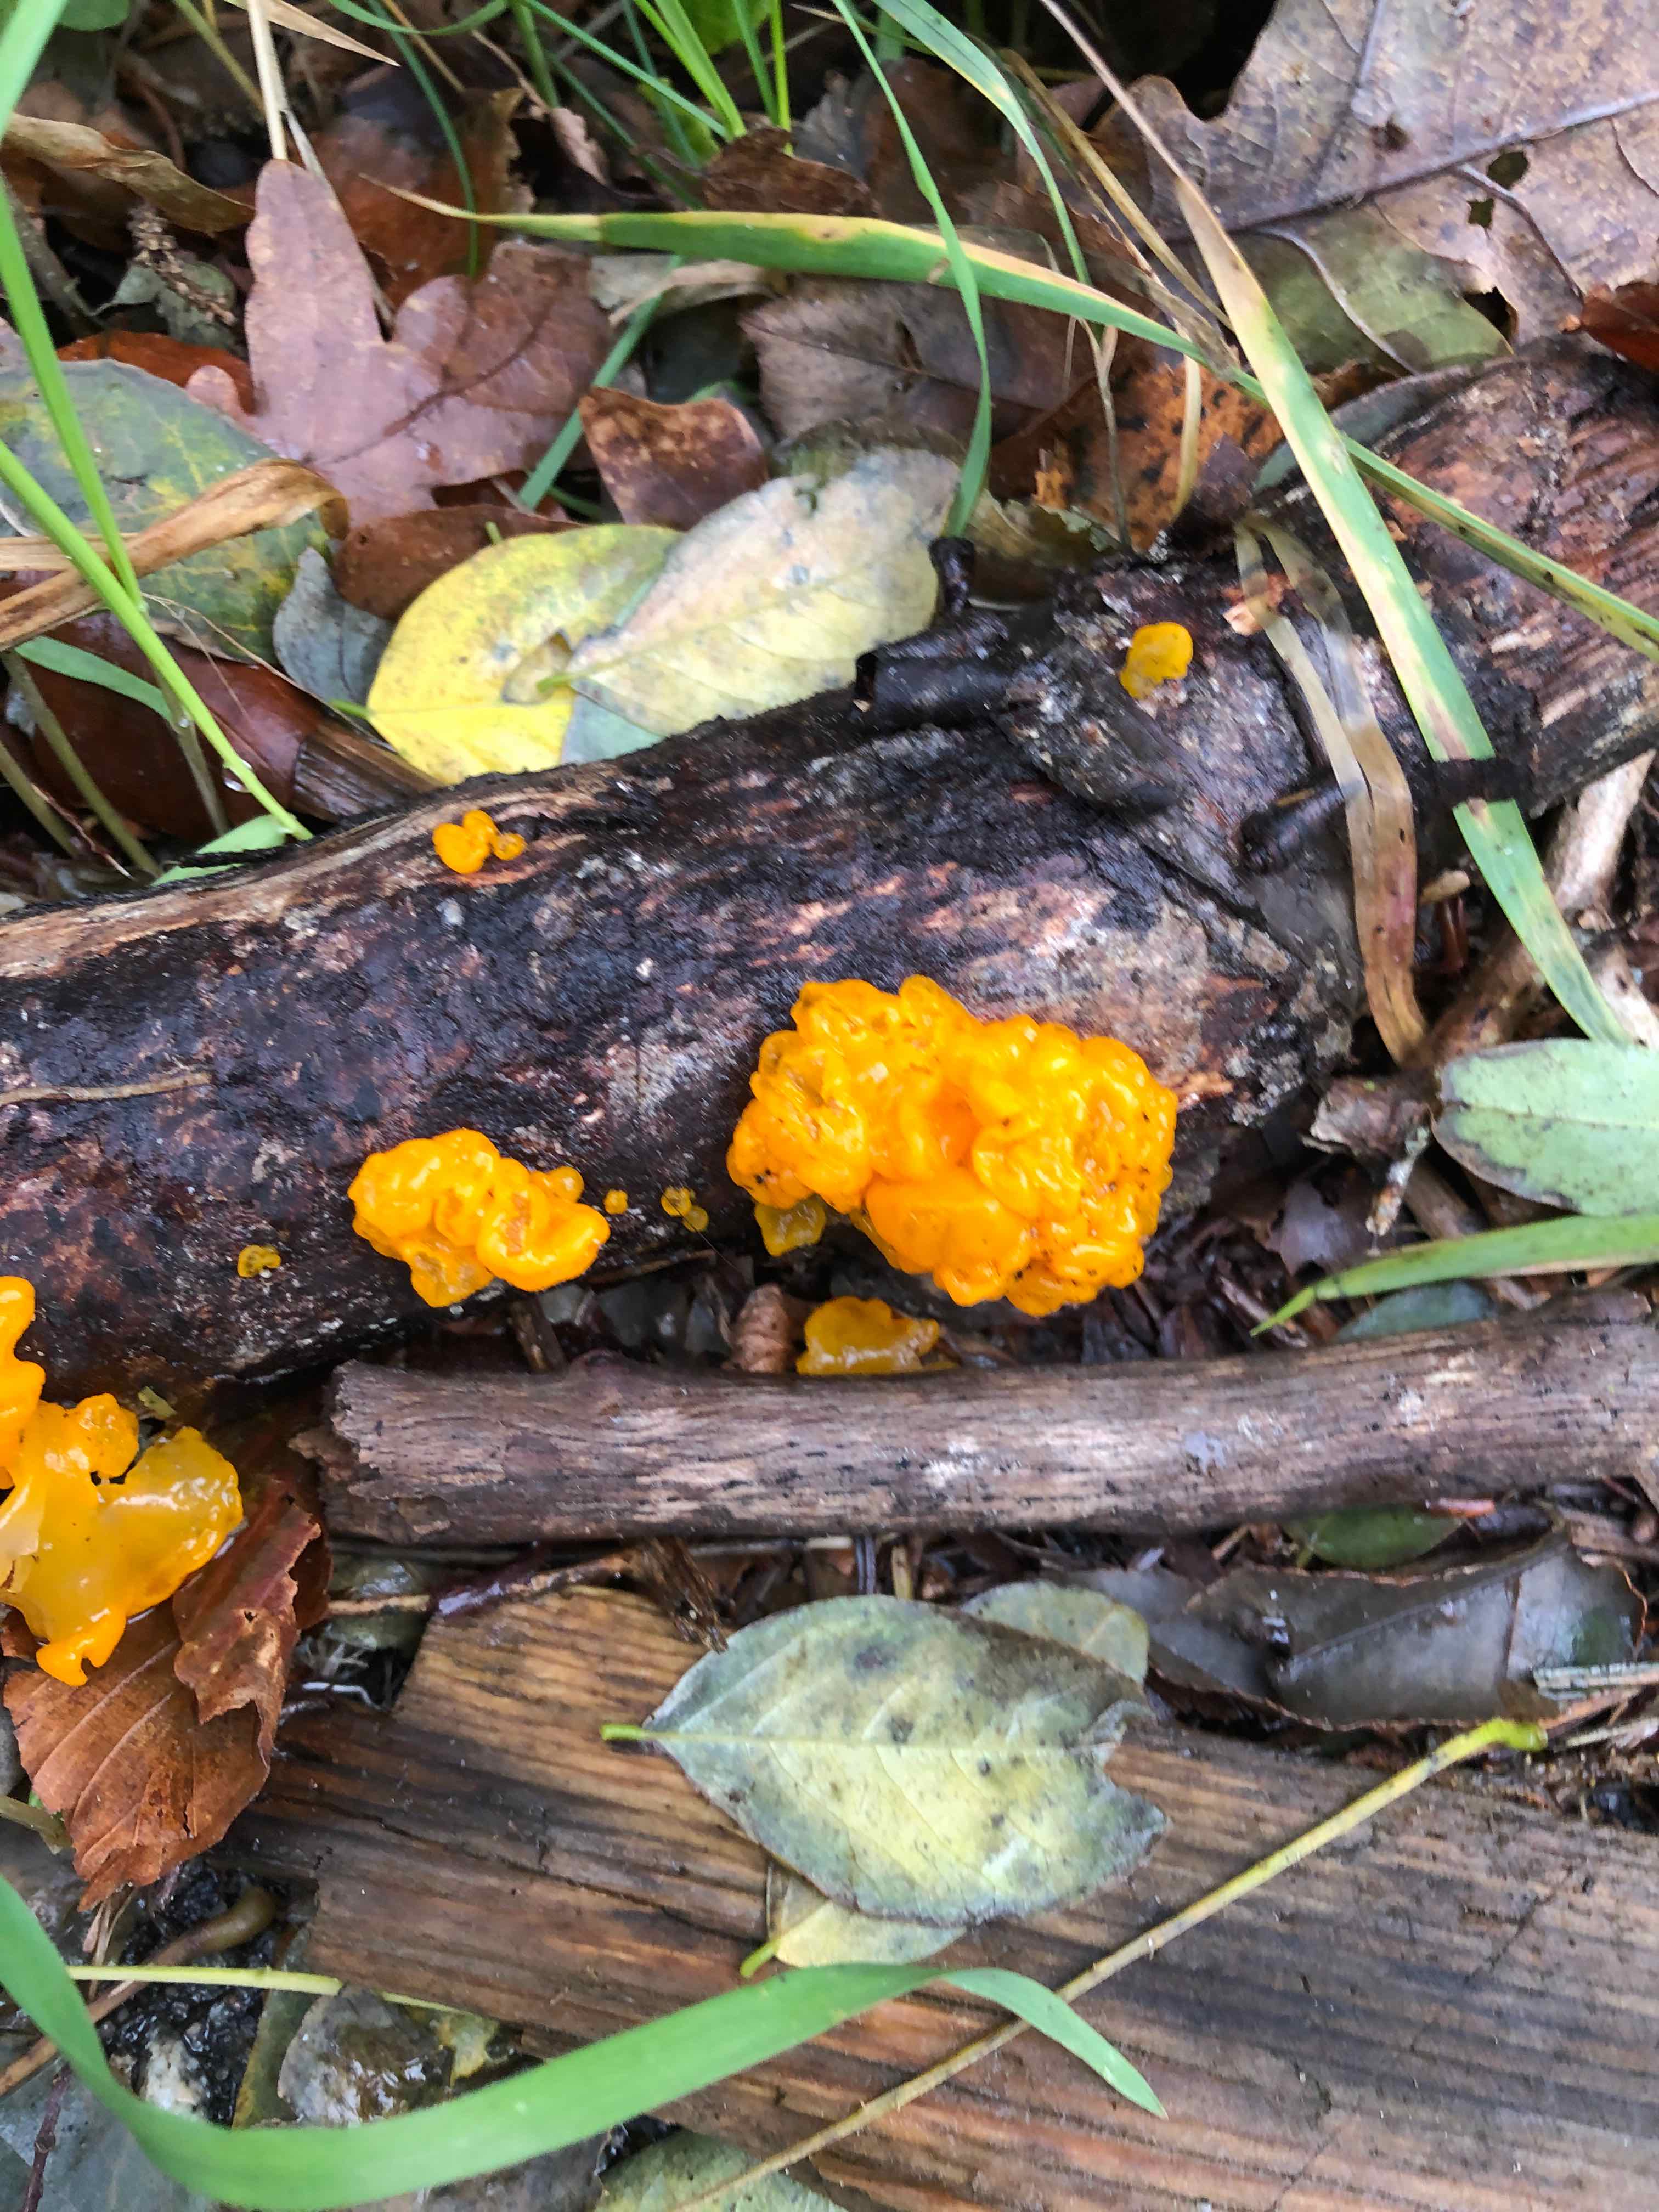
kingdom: Fungi
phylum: Basidiomycota
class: Tremellomycetes
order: Tremellales
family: Tremellaceae
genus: Tremella
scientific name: Tremella mesenterica
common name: gul bævresvamp
